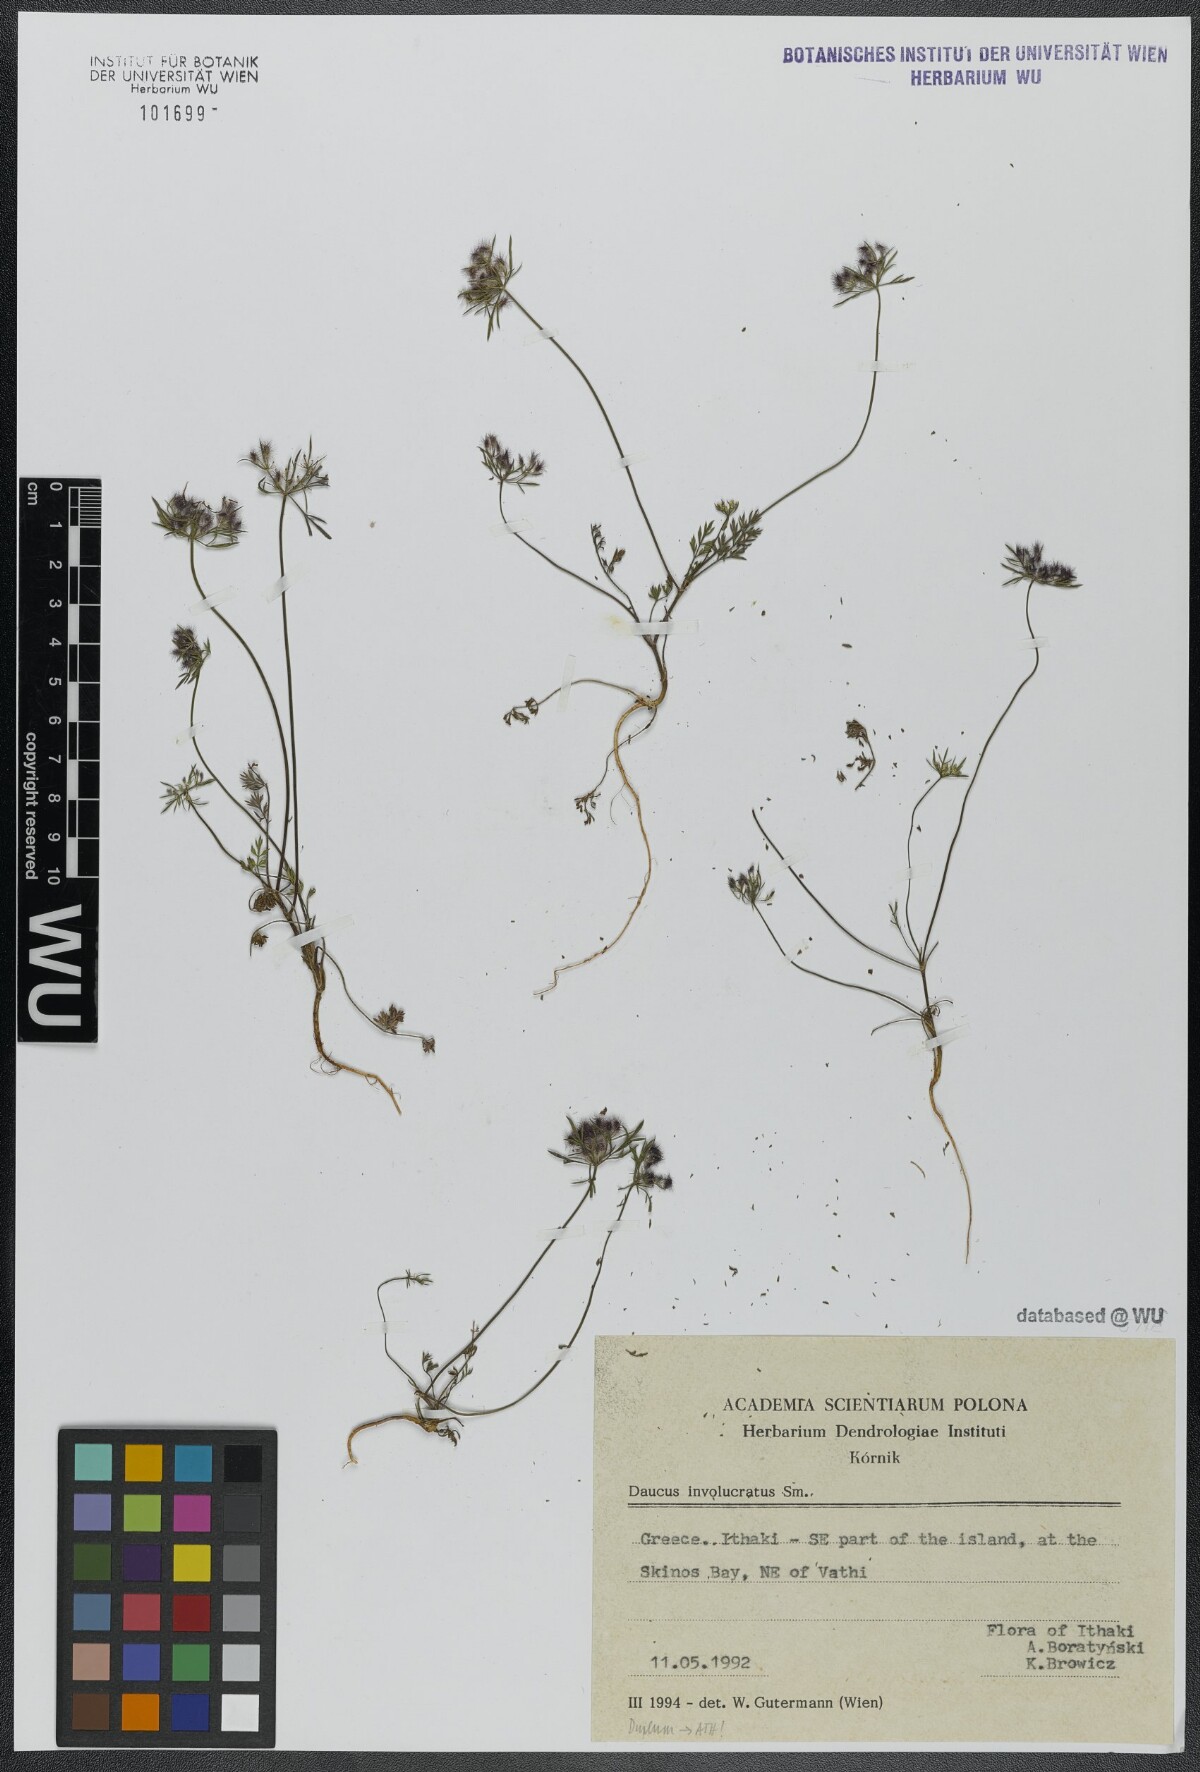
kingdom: Plantae
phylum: Tracheophyta
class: Magnoliopsida
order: Apiales
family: Apiaceae
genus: Daucus
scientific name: Daucus involucratus
